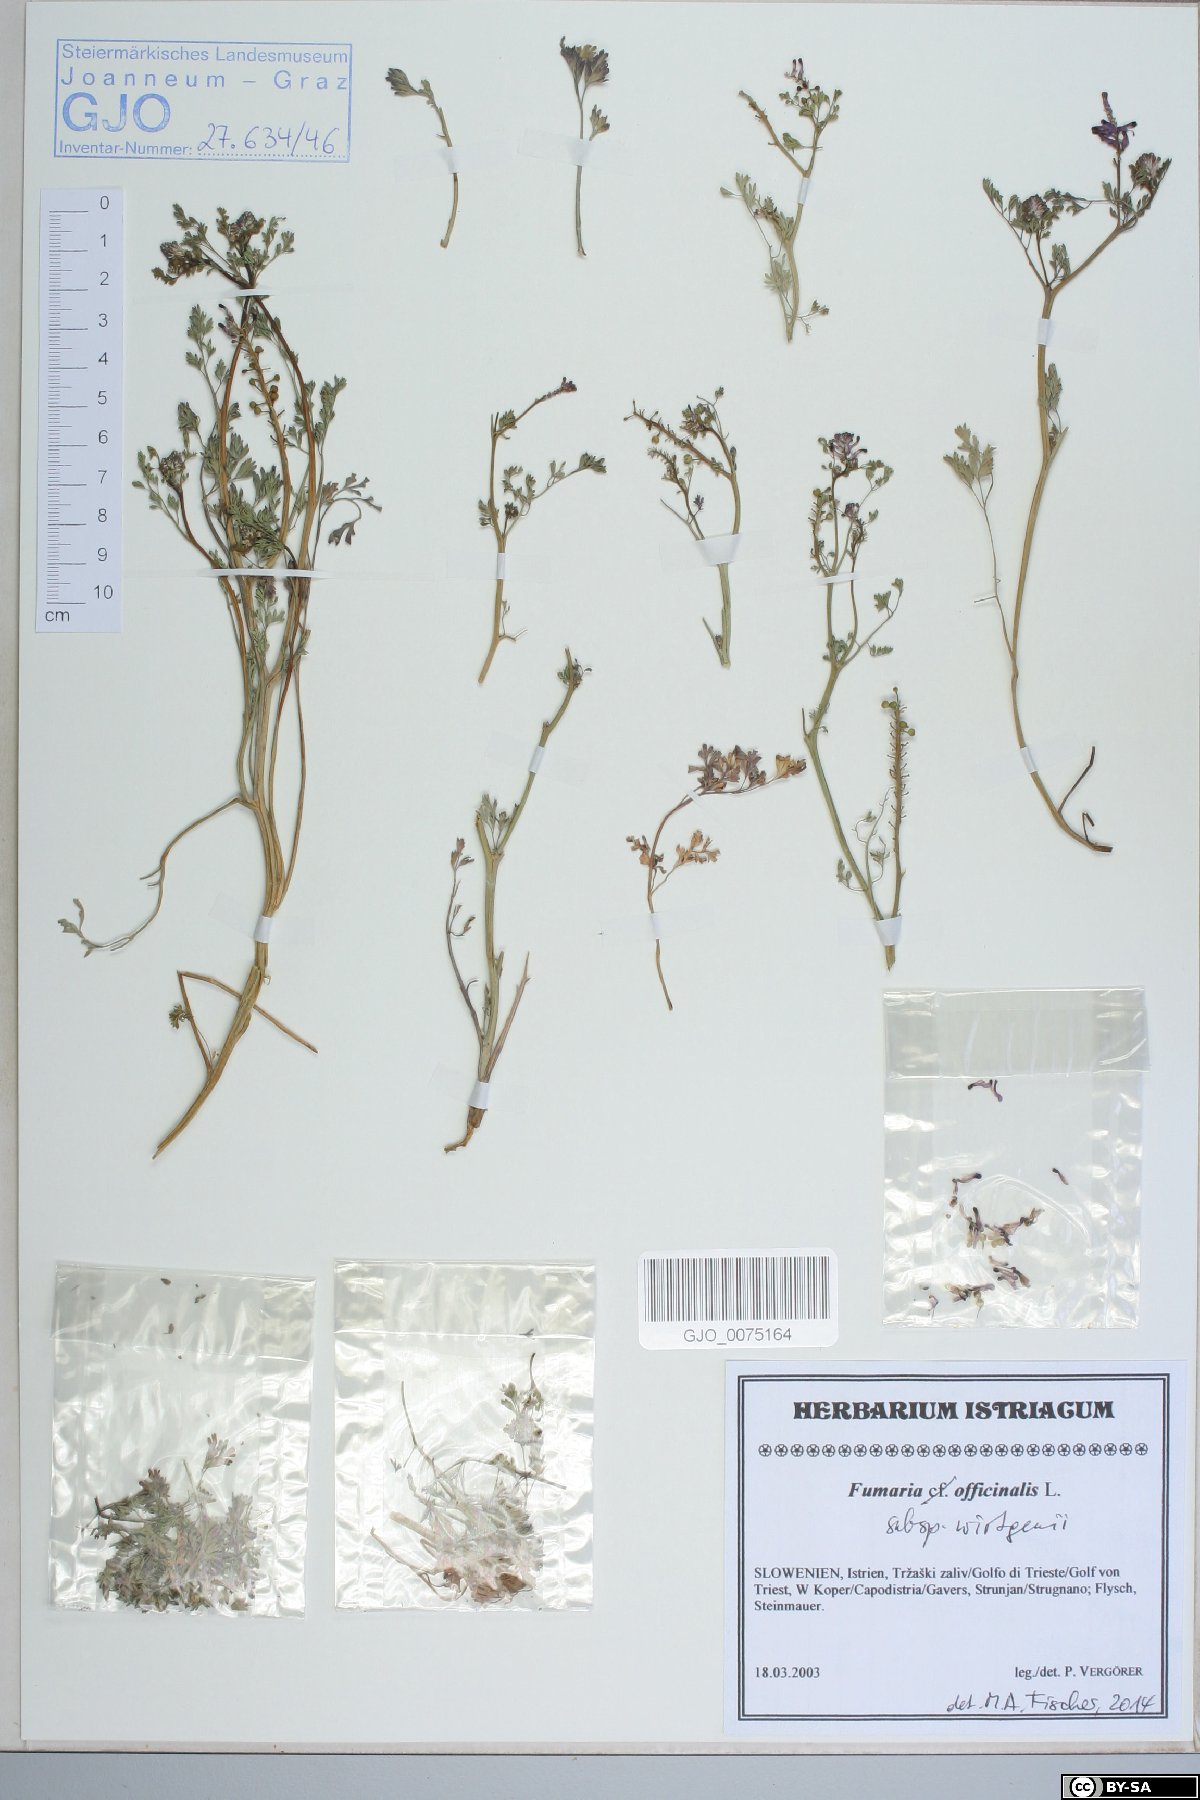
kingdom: Plantae
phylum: Tracheophyta
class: Magnoliopsida
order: Ranunculales
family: Papaveraceae
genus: Fumaria
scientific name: Fumaria wirtgenii
